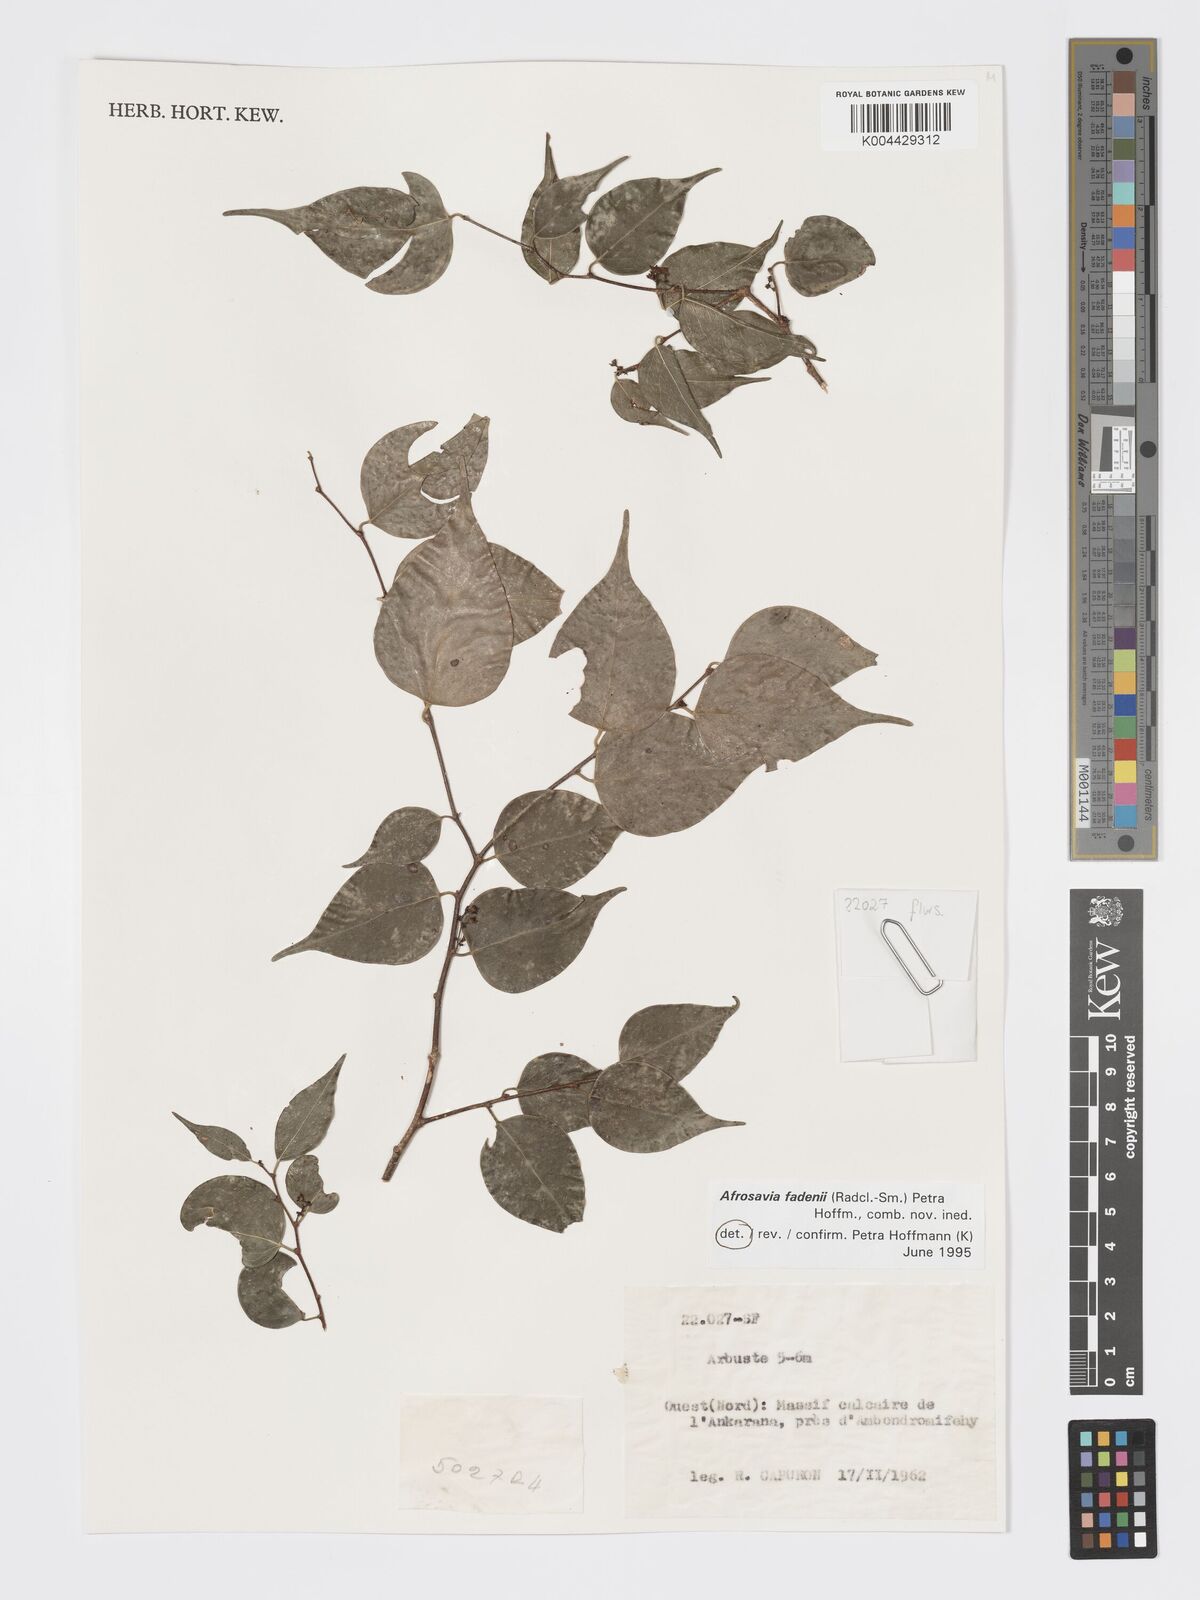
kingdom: Plantae
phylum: Tracheophyta
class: Magnoliopsida
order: Malpighiales
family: Phyllanthaceae
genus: Wielandia
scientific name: Wielandia fadenii
